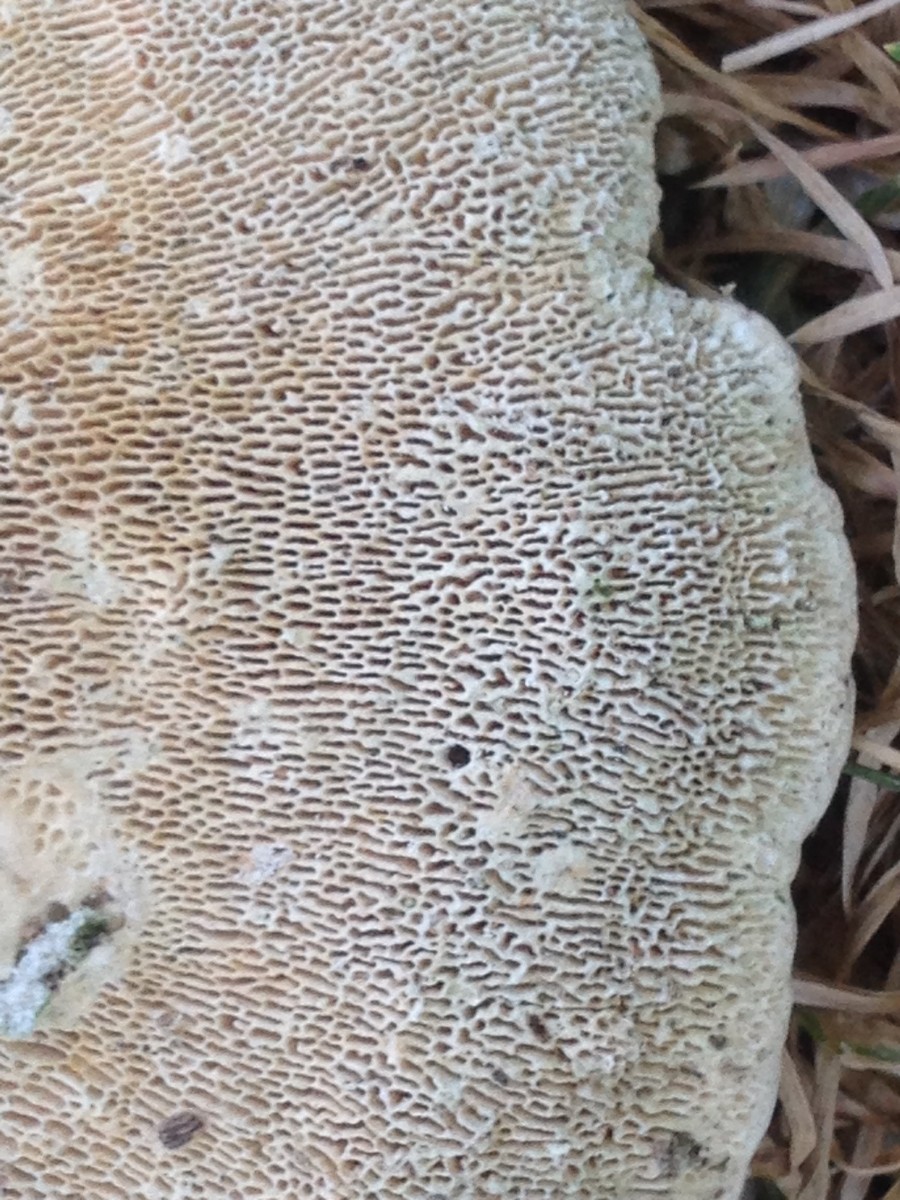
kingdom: Fungi
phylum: Basidiomycota
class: Agaricomycetes
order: Polyporales
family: Polyporaceae
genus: Trametes
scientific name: Trametes gibbosa
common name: puklet læderporesvamp
